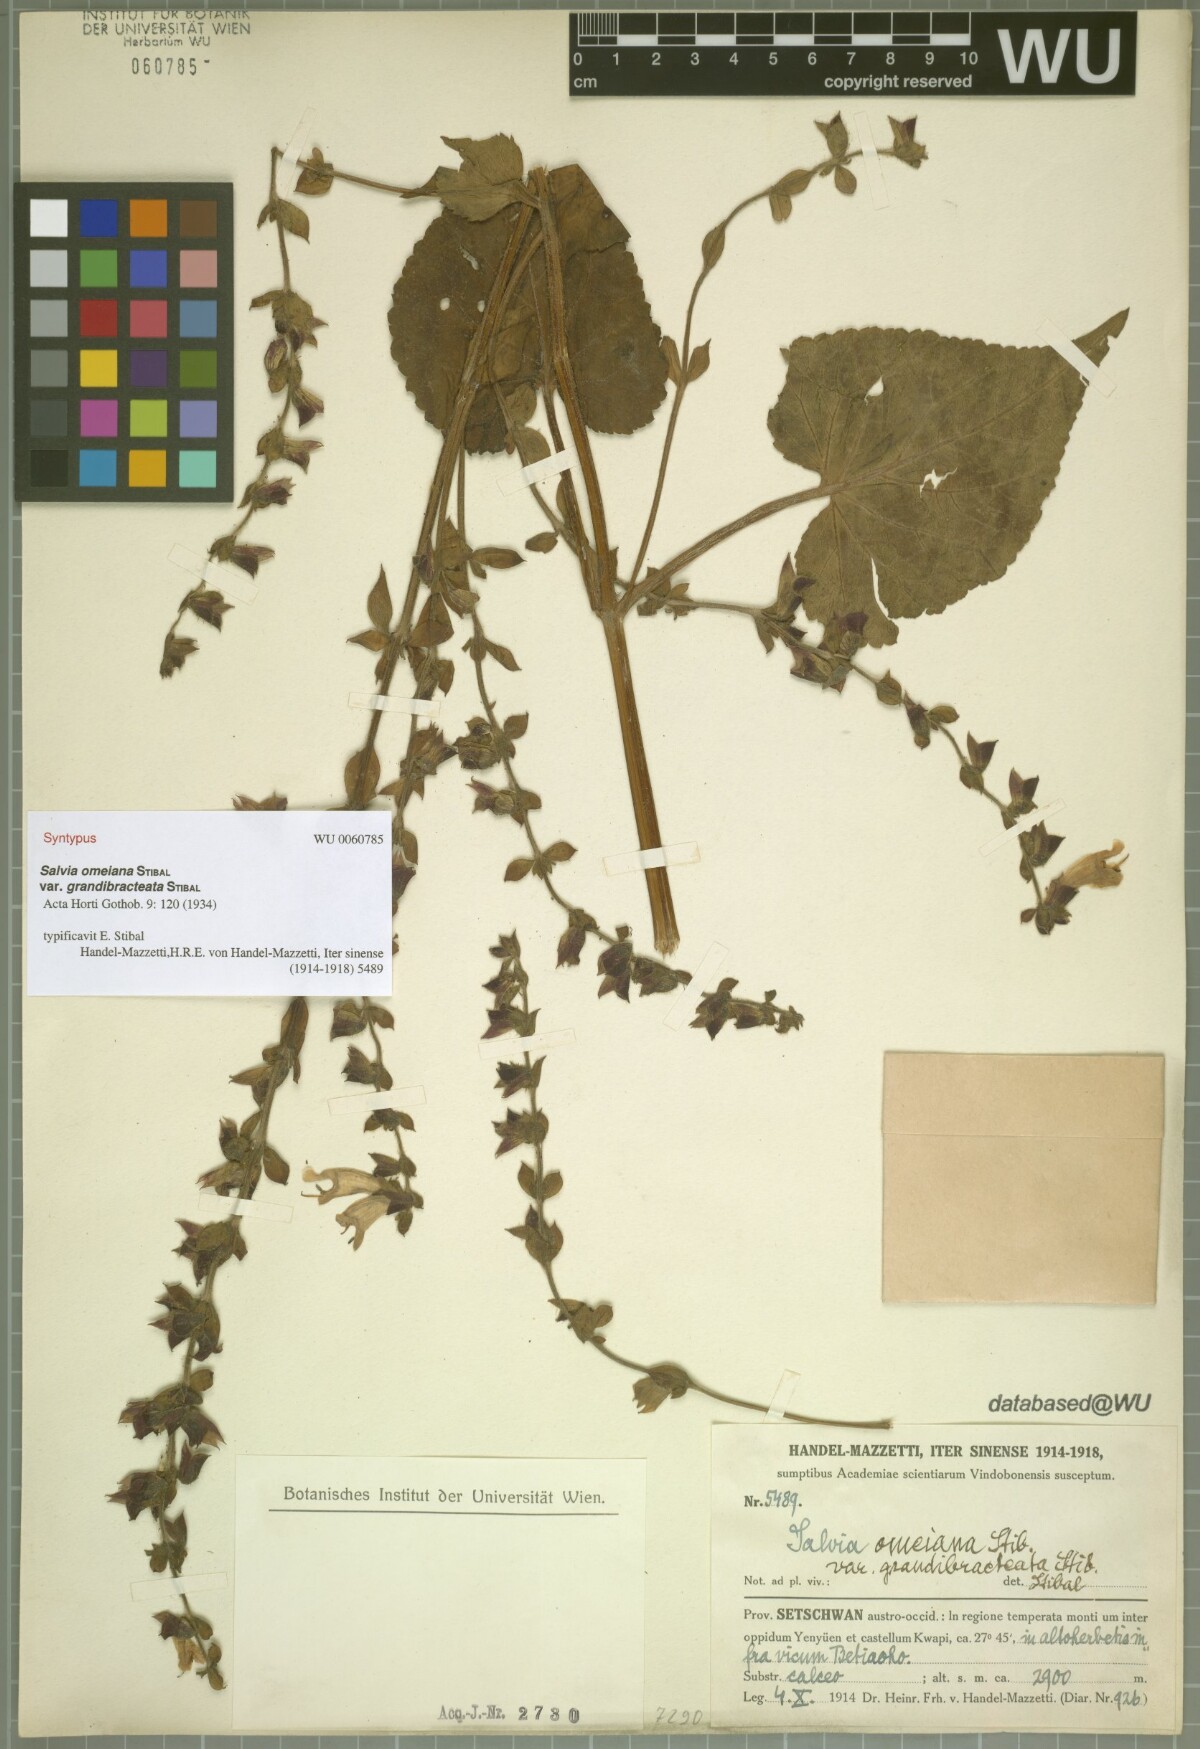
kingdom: Plantae
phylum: Tracheophyta
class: Magnoliopsida
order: Lamiales
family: Lamiaceae
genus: Salvia
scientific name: Salvia omeiana
